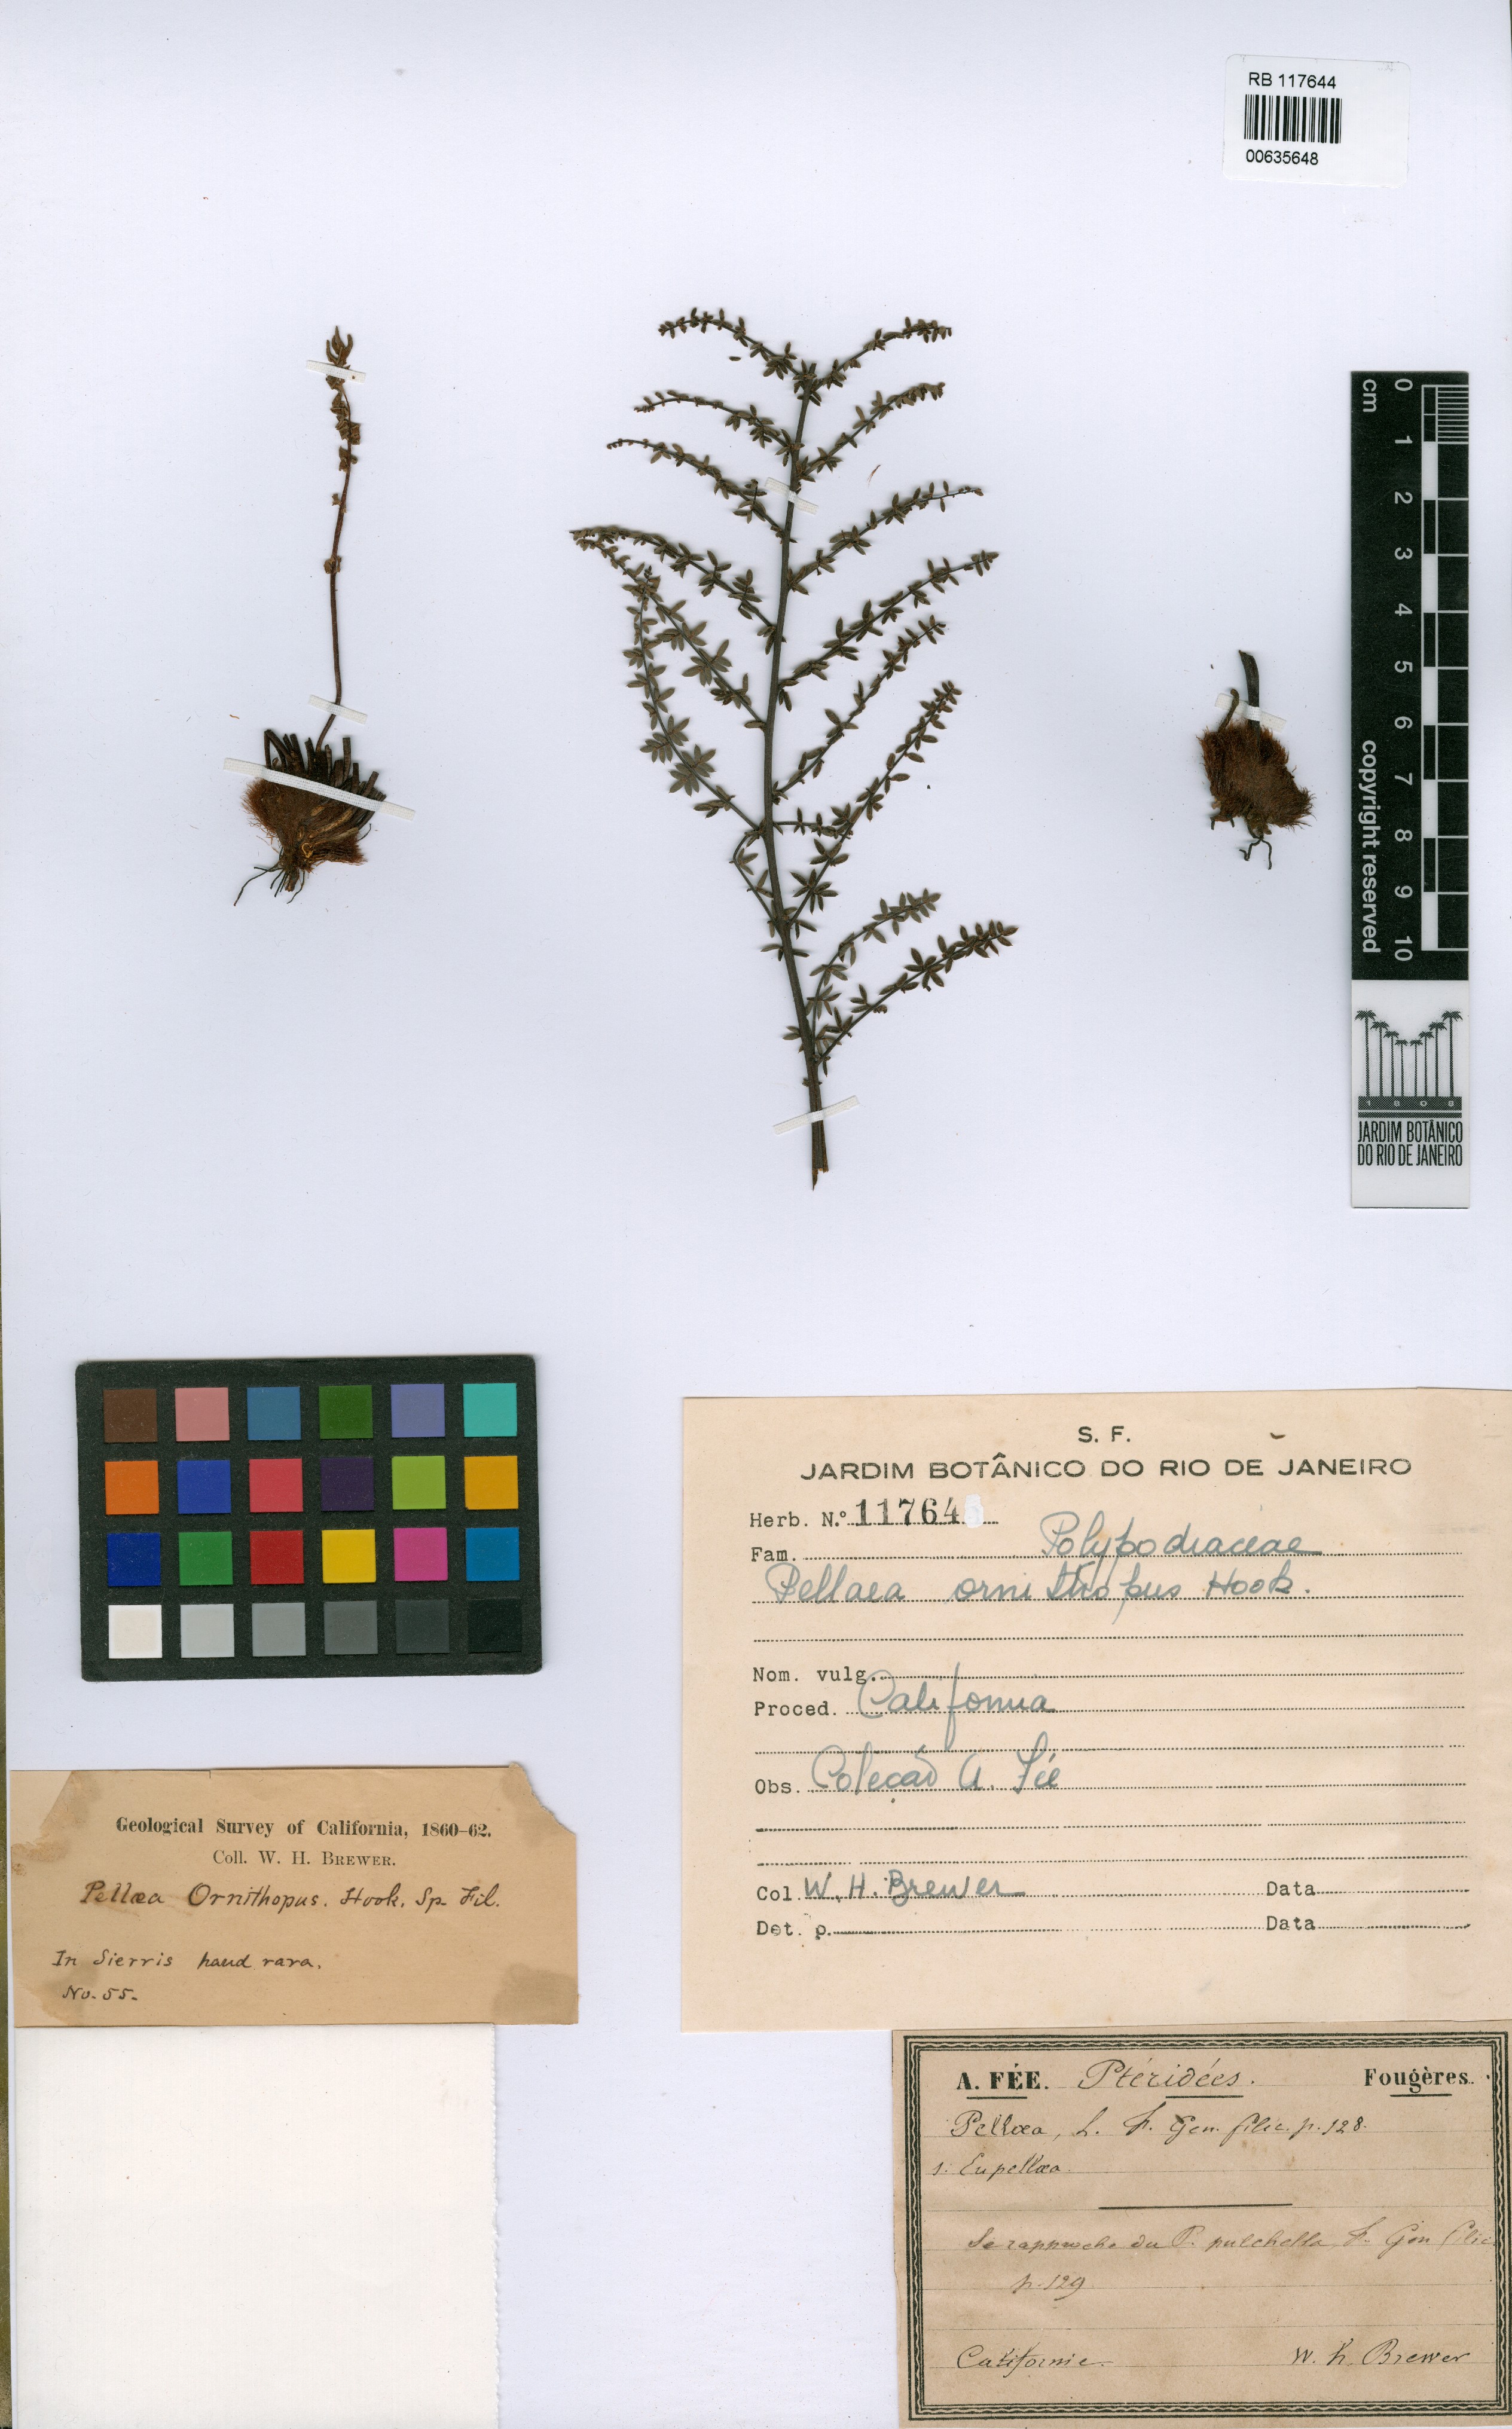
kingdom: Plantae
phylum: Tracheophyta
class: Polypodiopsida
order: Polypodiales
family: Pteridaceae
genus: Pellaea
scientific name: Pellaea mucronata
